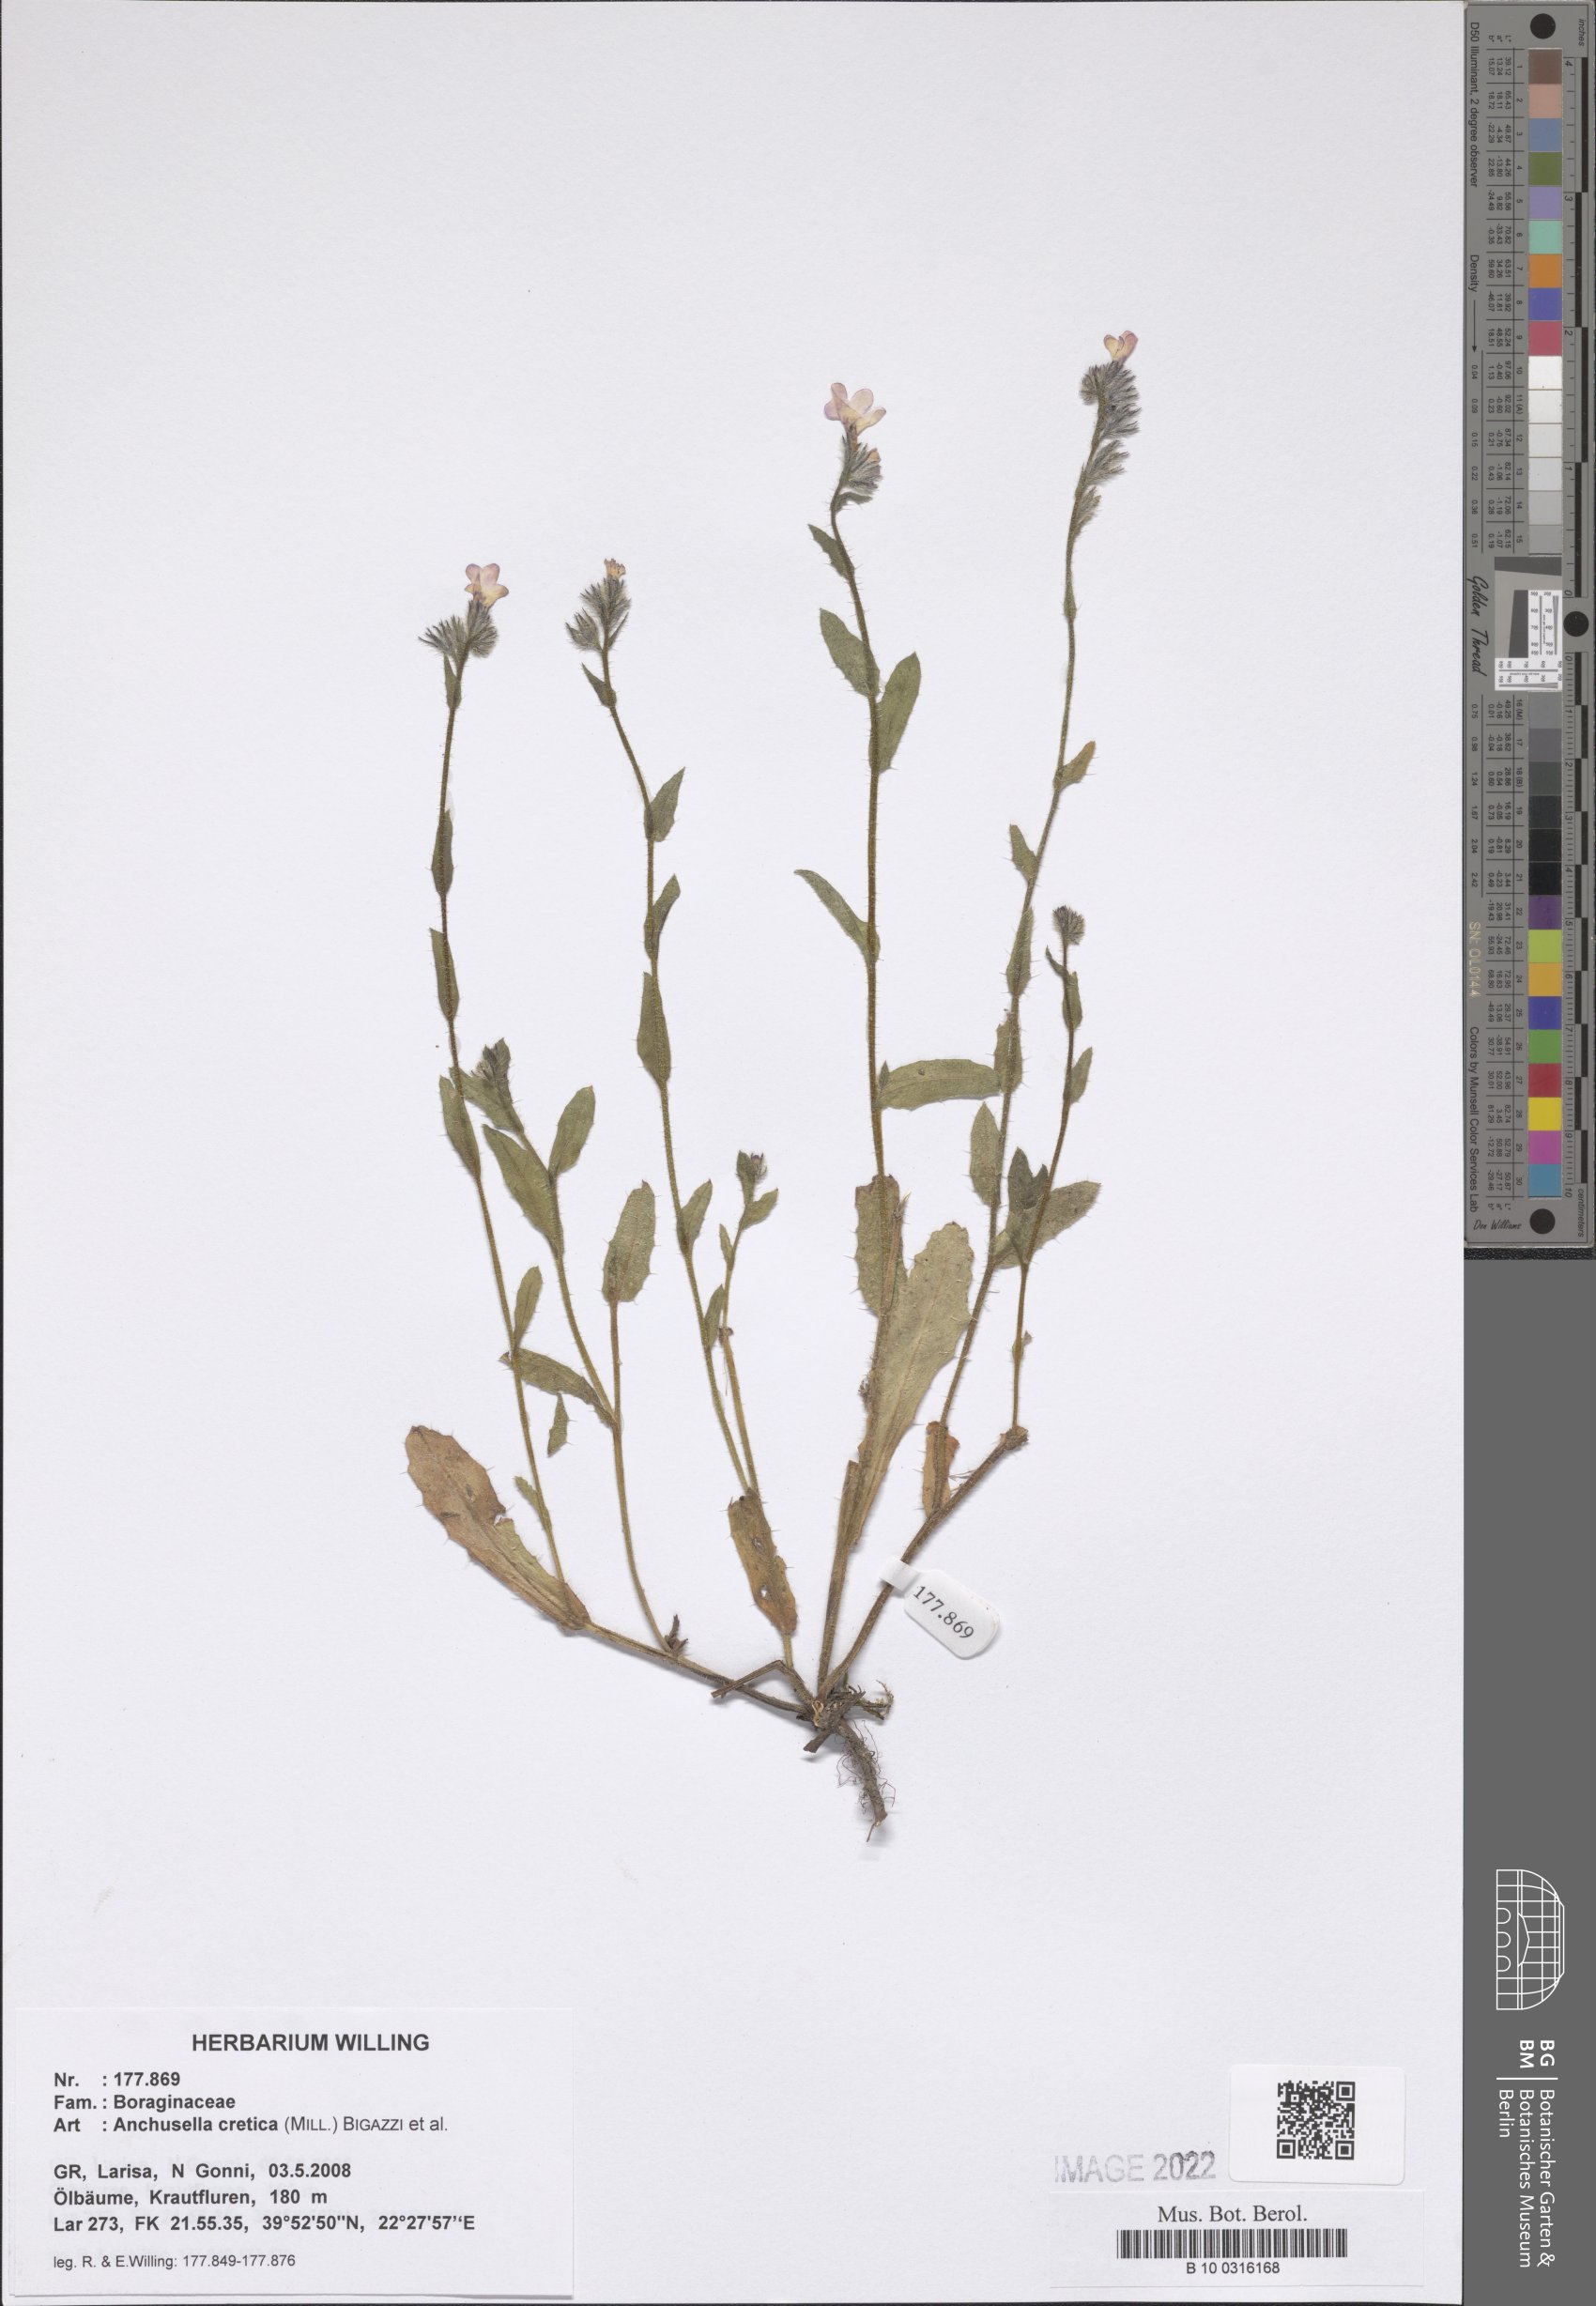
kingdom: Plantae
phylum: Tracheophyta
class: Magnoliopsida
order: Boraginales
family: Boraginaceae
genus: Anchusella
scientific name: Anchusella cretica
